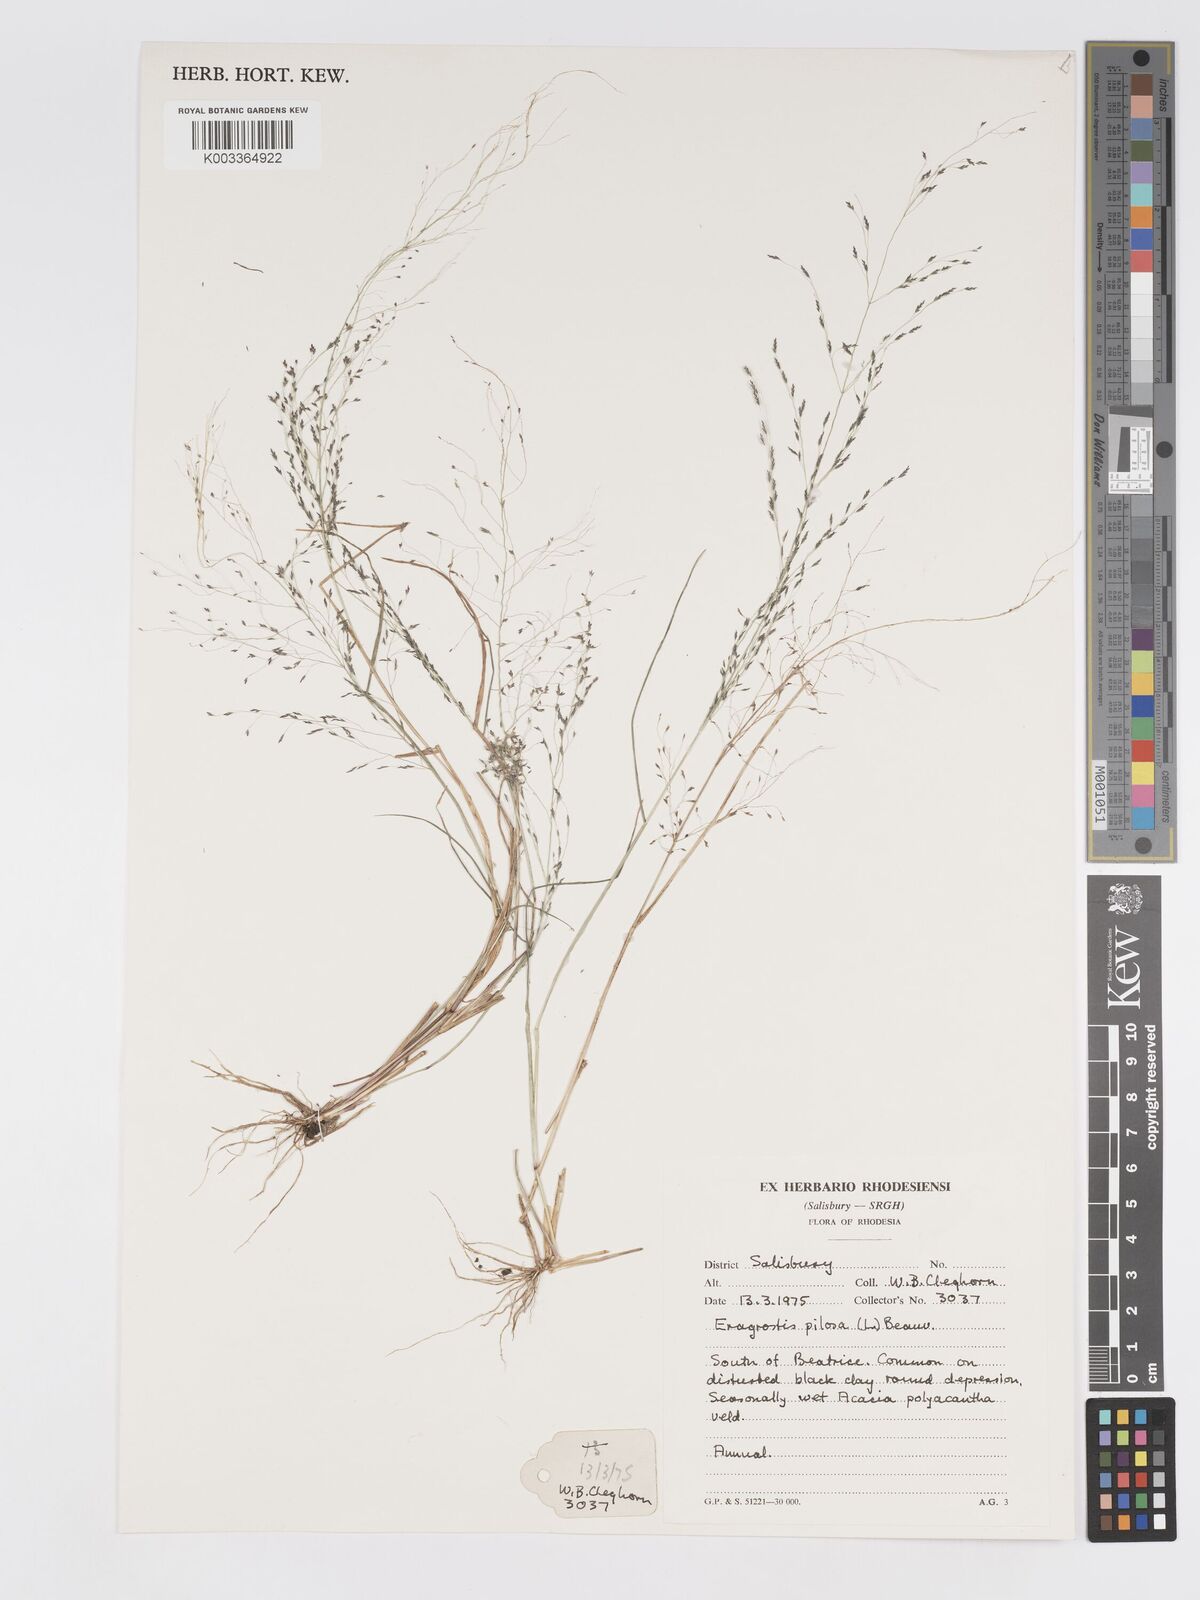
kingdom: Plantae
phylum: Tracheophyta
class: Liliopsida
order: Poales
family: Poaceae
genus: Eragrostis
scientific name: Eragrostis pilosa
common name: Indian lovegrass
